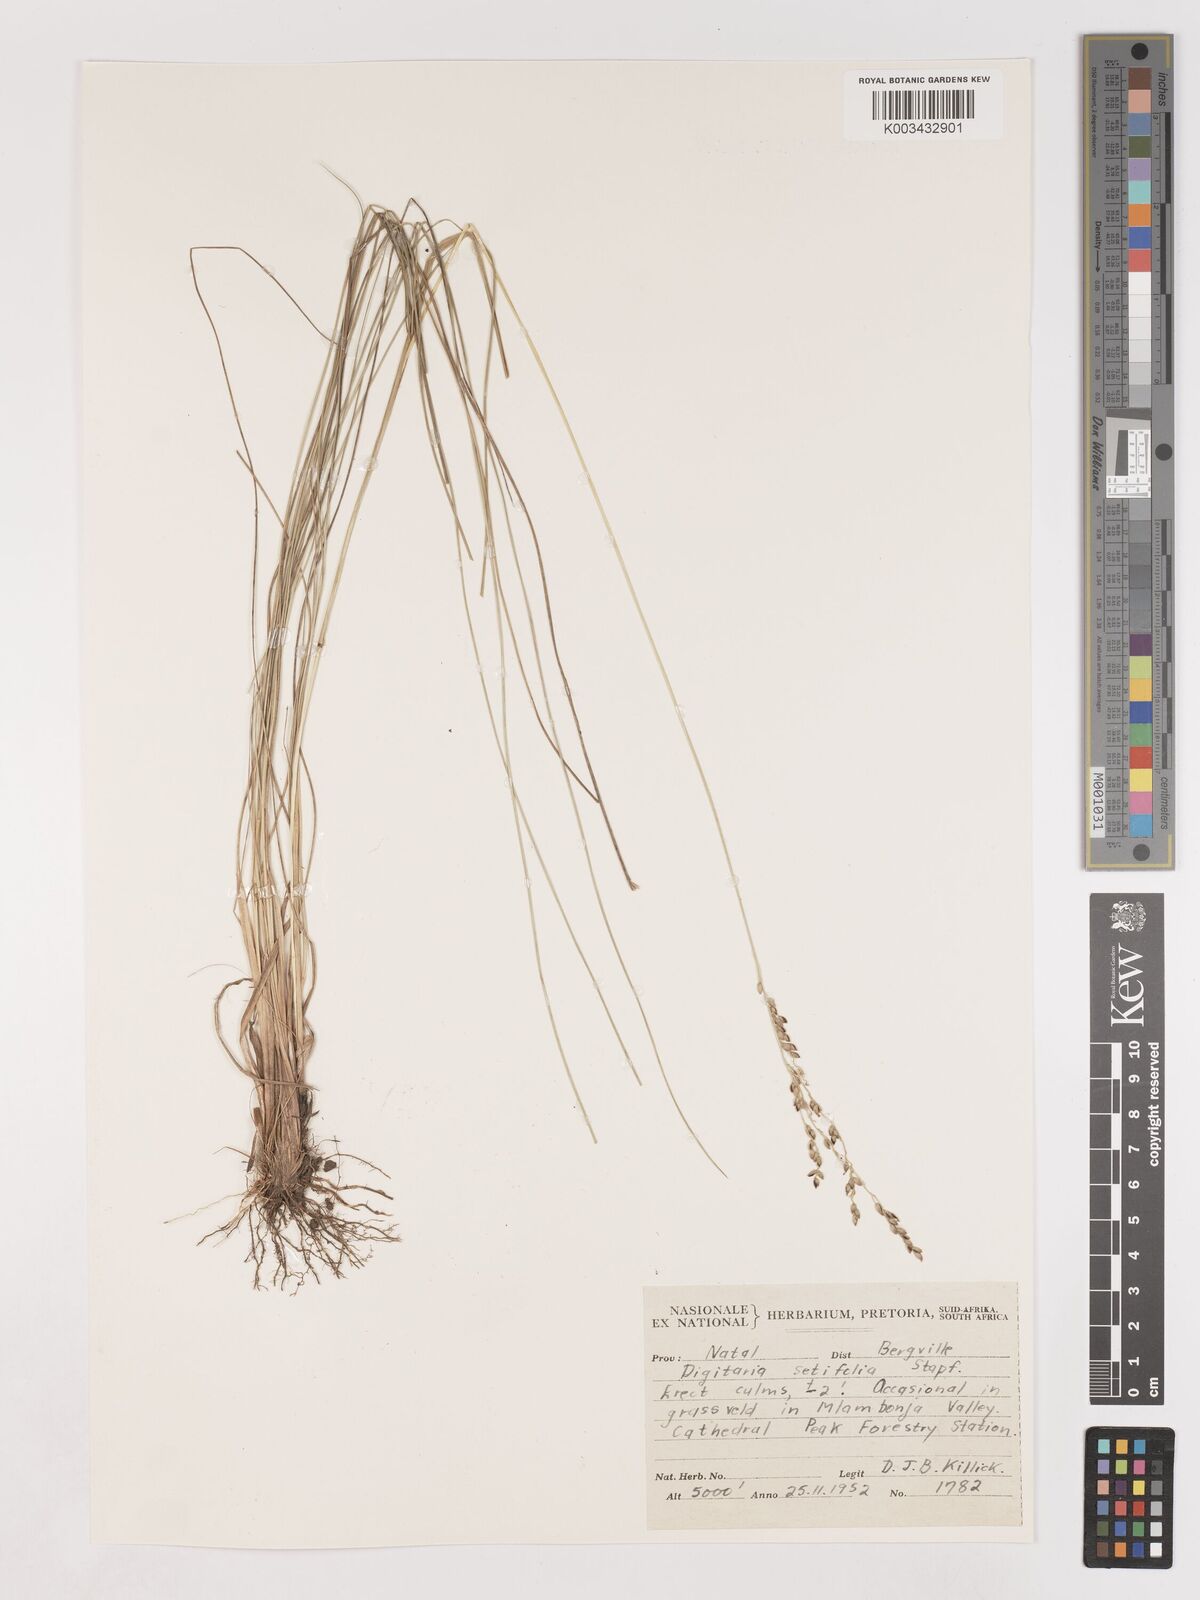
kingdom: Plantae
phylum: Tracheophyta
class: Liliopsida
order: Poales
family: Poaceae
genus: Digitaria
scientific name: Digitaria setifolia
